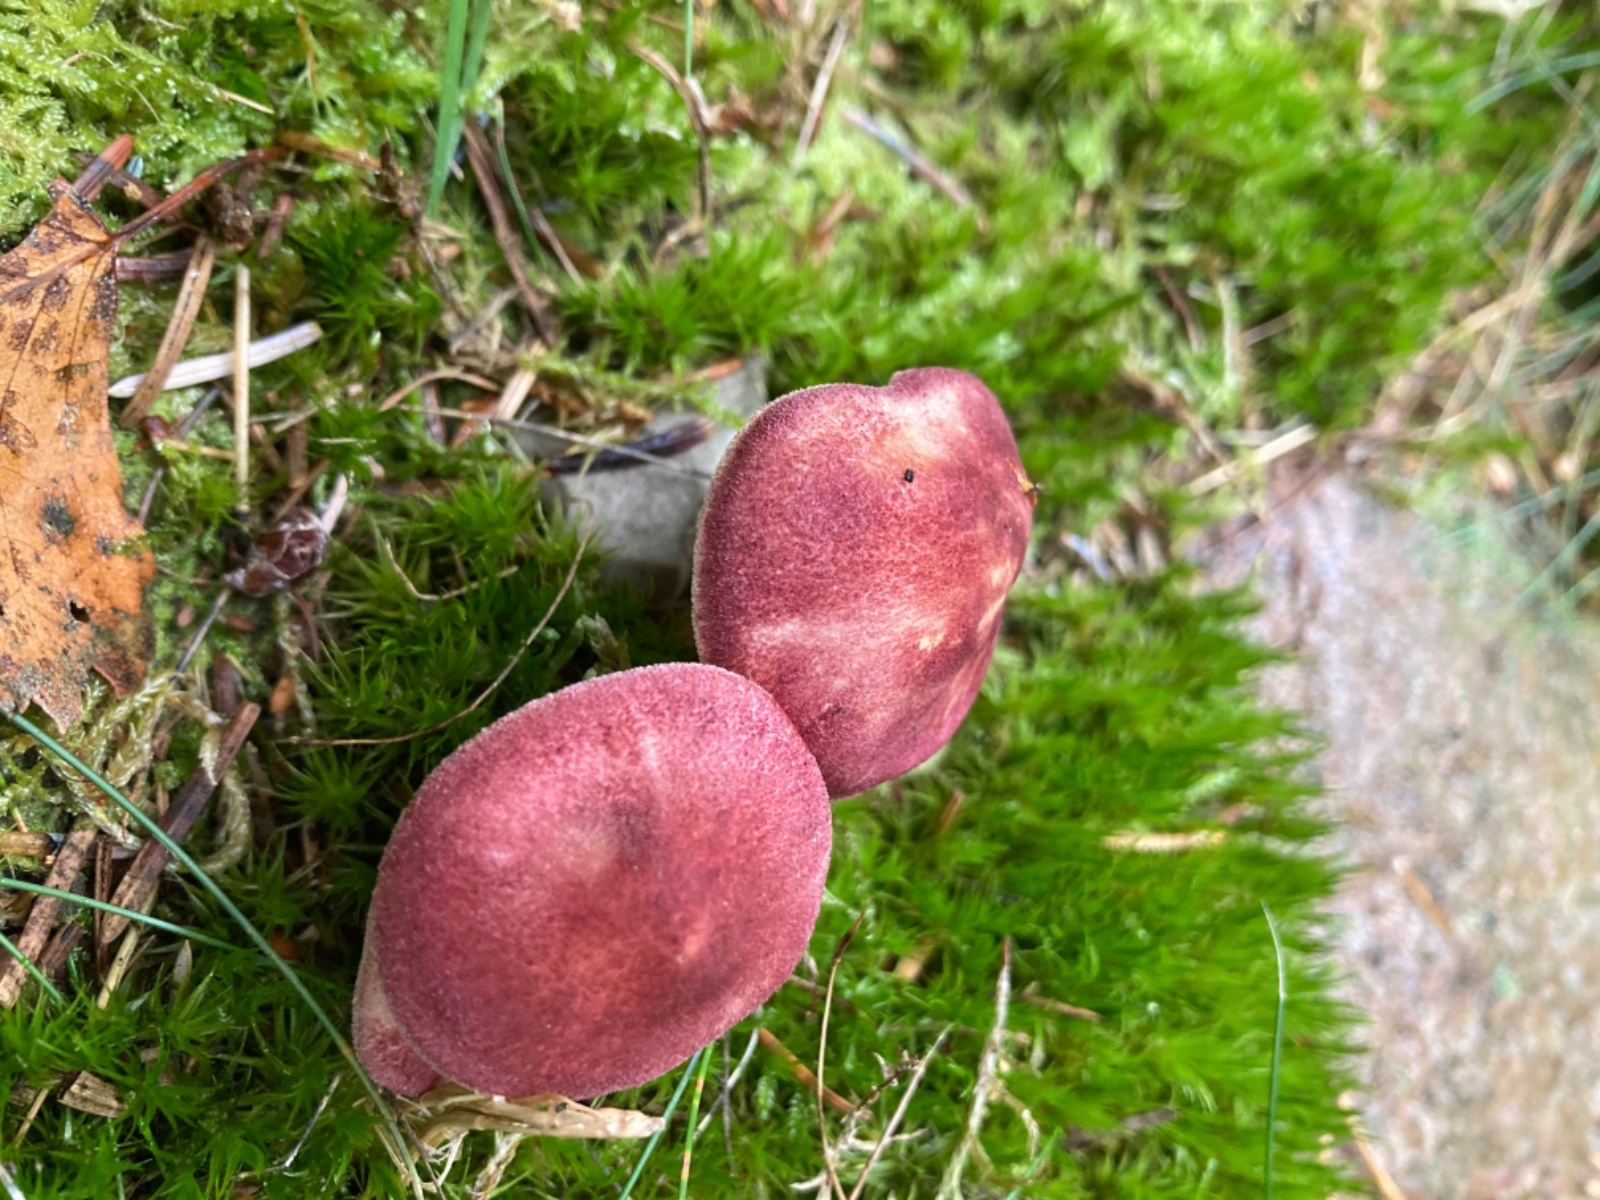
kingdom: Fungi
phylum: Basidiomycota
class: Agaricomycetes
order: Agaricales
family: Tricholomataceae
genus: Tricholomopsis
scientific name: Tricholomopsis rutilans
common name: purpur-væbnerhat
